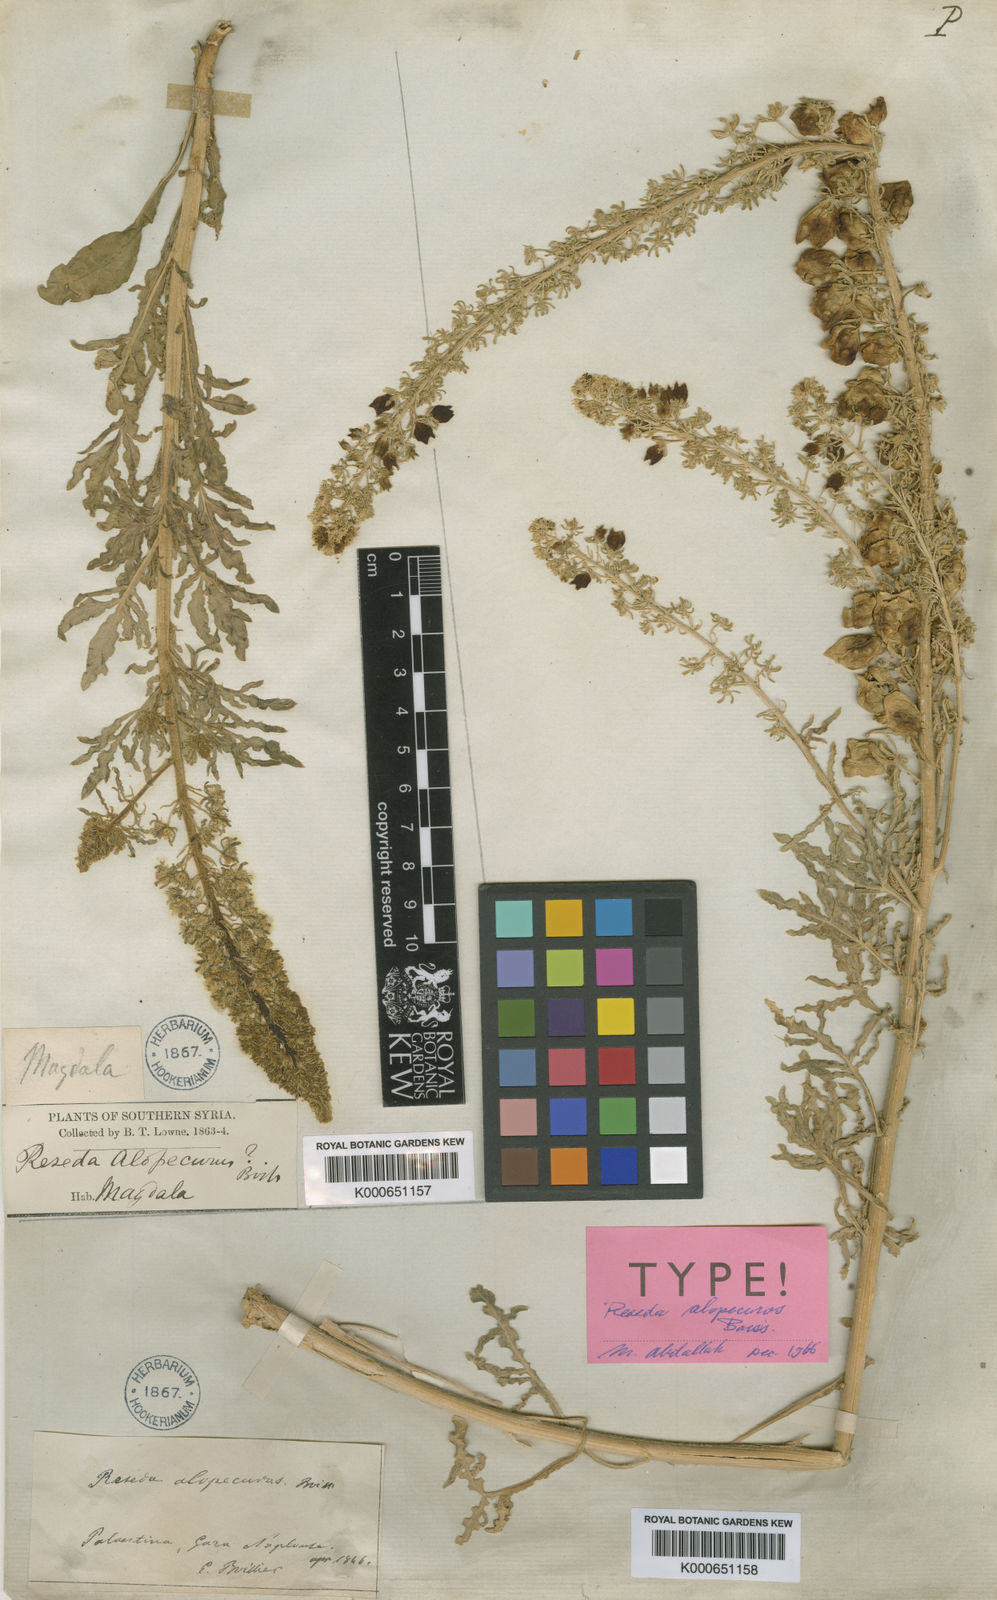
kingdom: Plantae
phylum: Tracheophyta
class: Magnoliopsida
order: Brassicales
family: Resedaceae
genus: Reseda
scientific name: Reseda alopecuros
